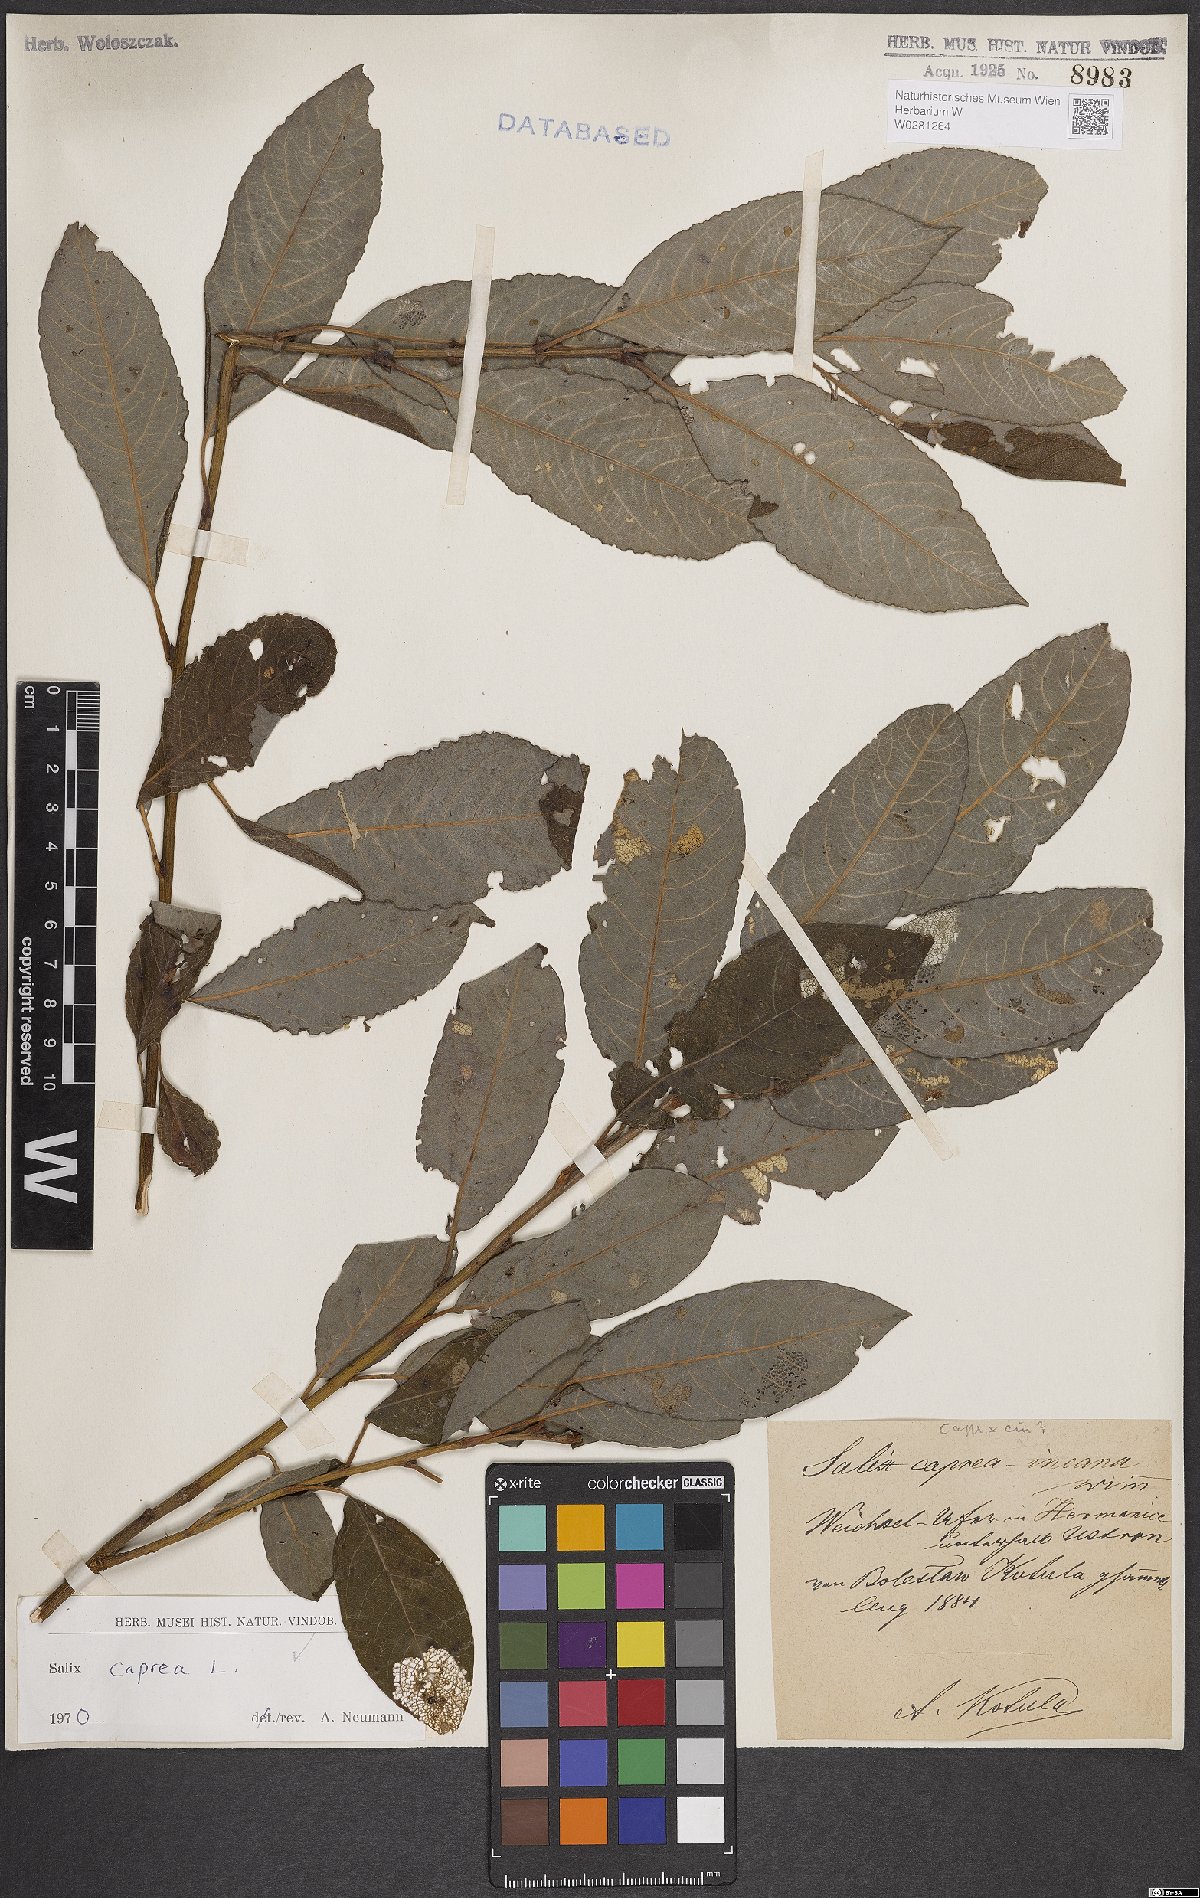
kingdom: Plantae
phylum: Tracheophyta
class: Magnoliopsida
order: Malpighiales
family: Salicaceae
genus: Salix
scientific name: Salix caprea
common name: Goat willow
